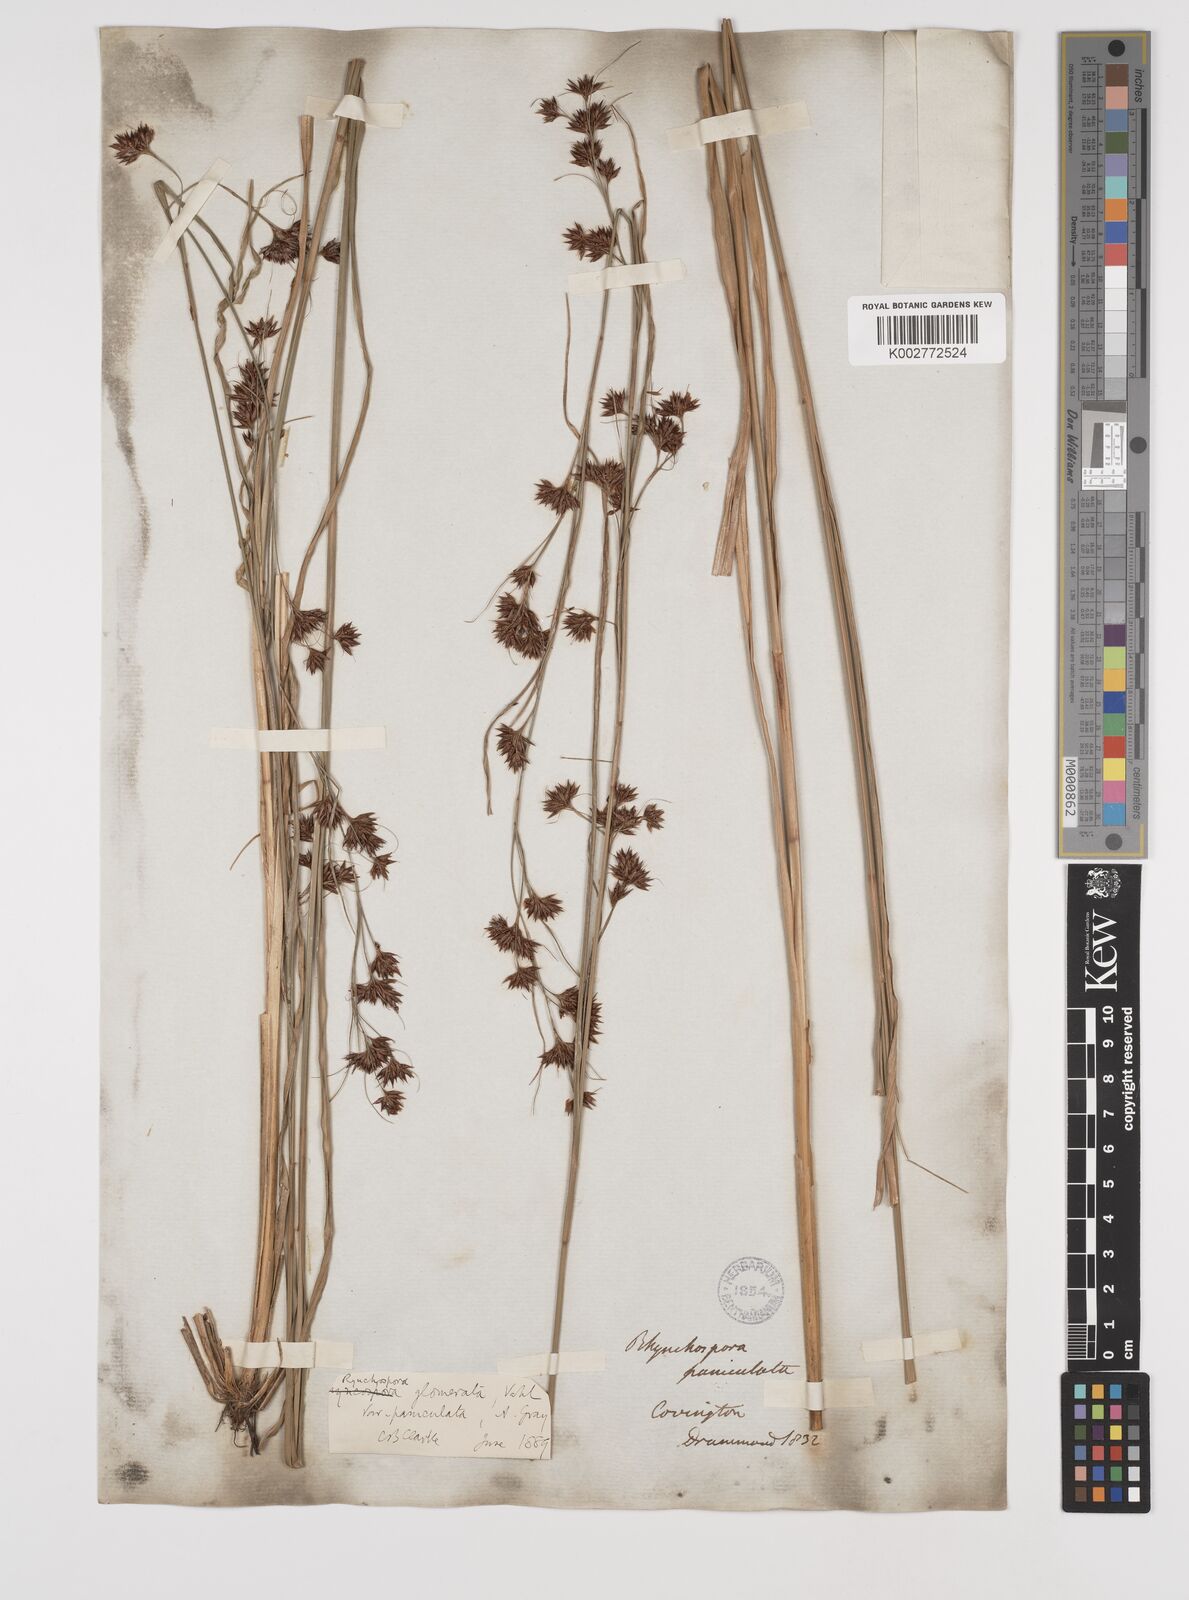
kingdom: Plantae
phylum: Tracheophyta
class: Liliopsida
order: Poales
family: Cyperaceae
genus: Rhynchospora
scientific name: Rhynchospora glomerata
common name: Cluster beak sedge
